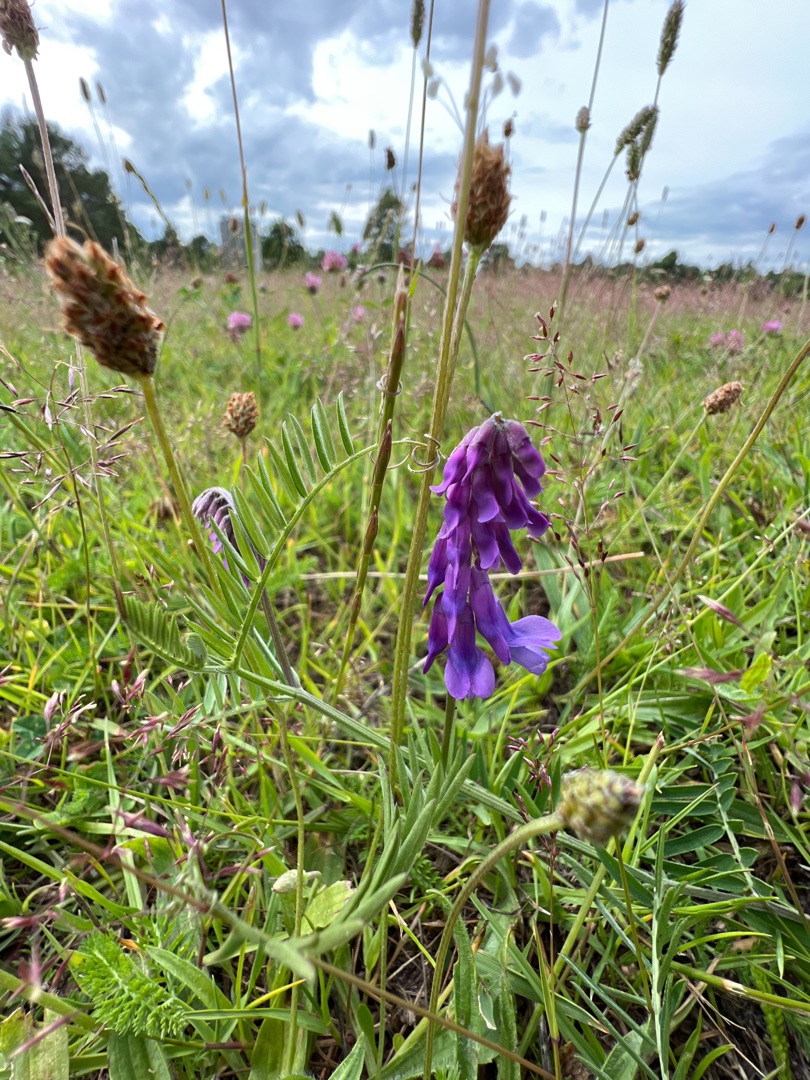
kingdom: Plantae
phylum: Tracheophyta
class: Magnoliopsida
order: Fabales
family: Fabaceae
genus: Vicia
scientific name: Vicia cracca
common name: Muse-vikke
